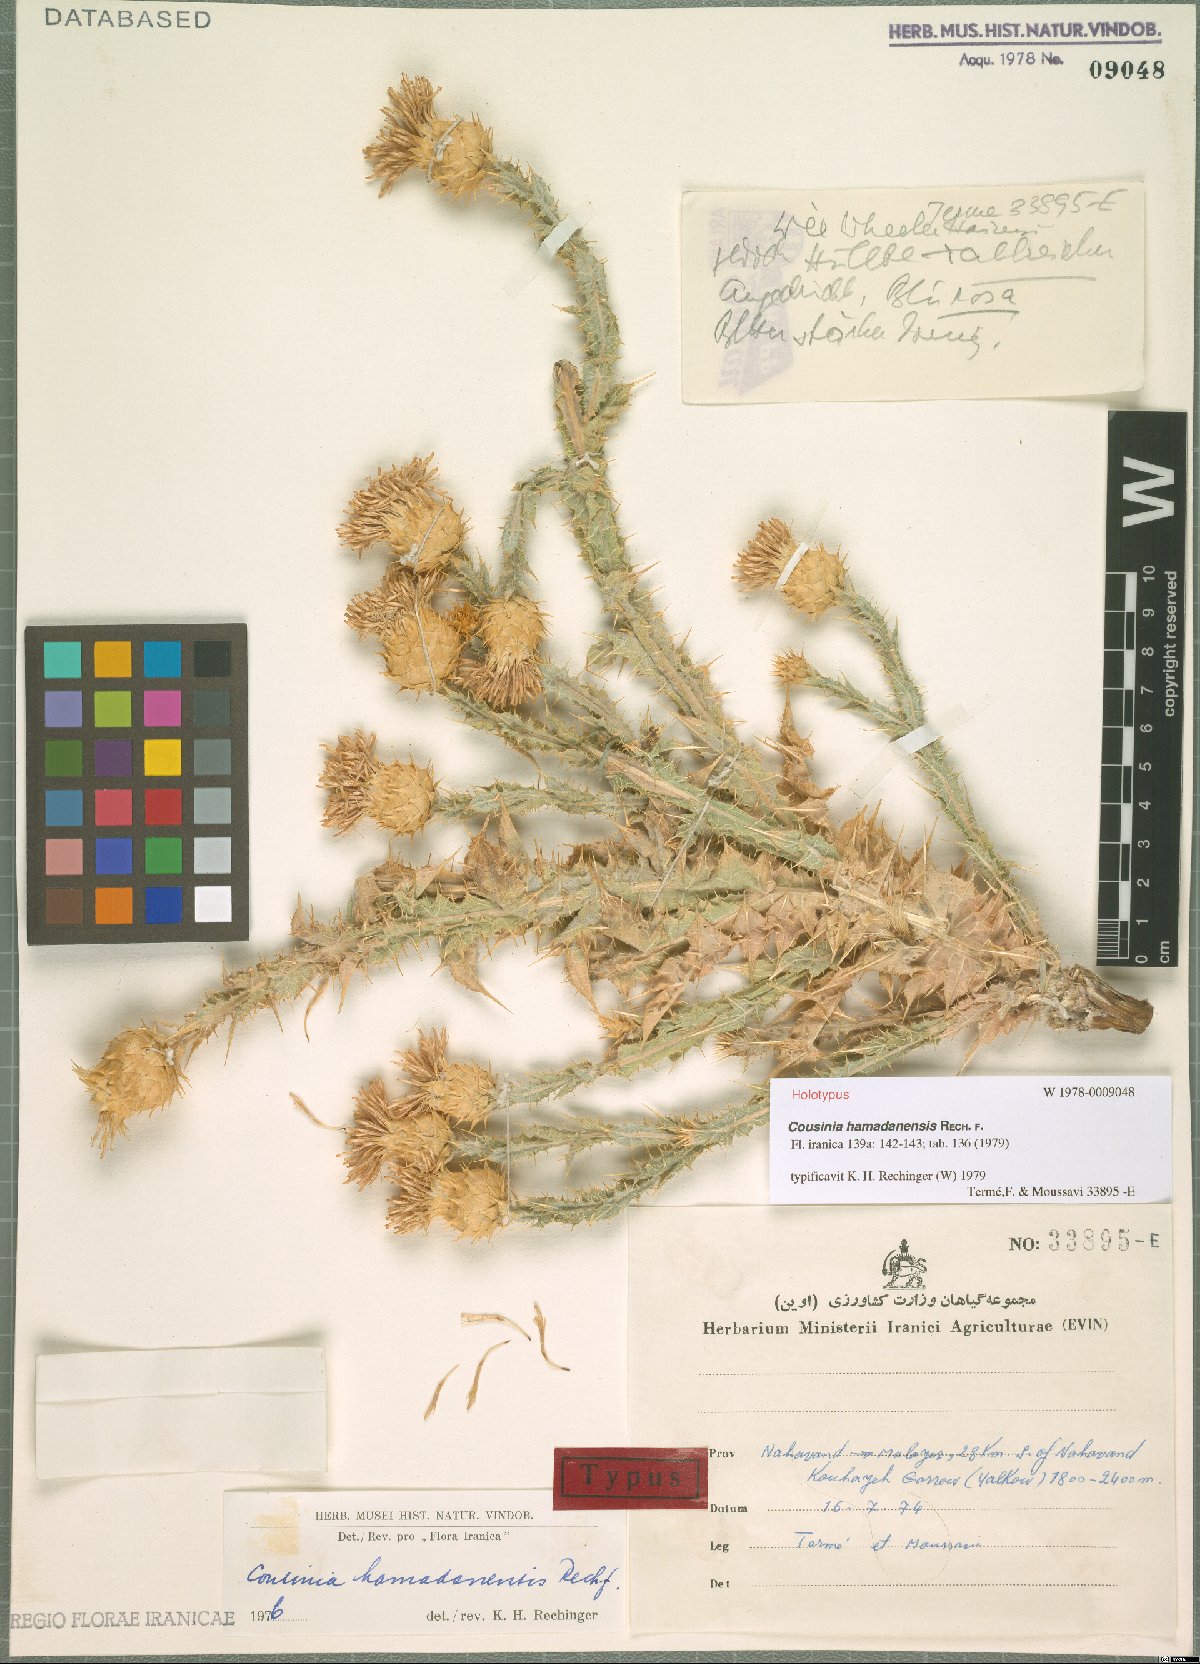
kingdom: Plantae
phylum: Tracheophyta
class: Magnoliopsida
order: Asterales
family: Asteraceae
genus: Cousinia
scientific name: Cousinia hamadanensis
